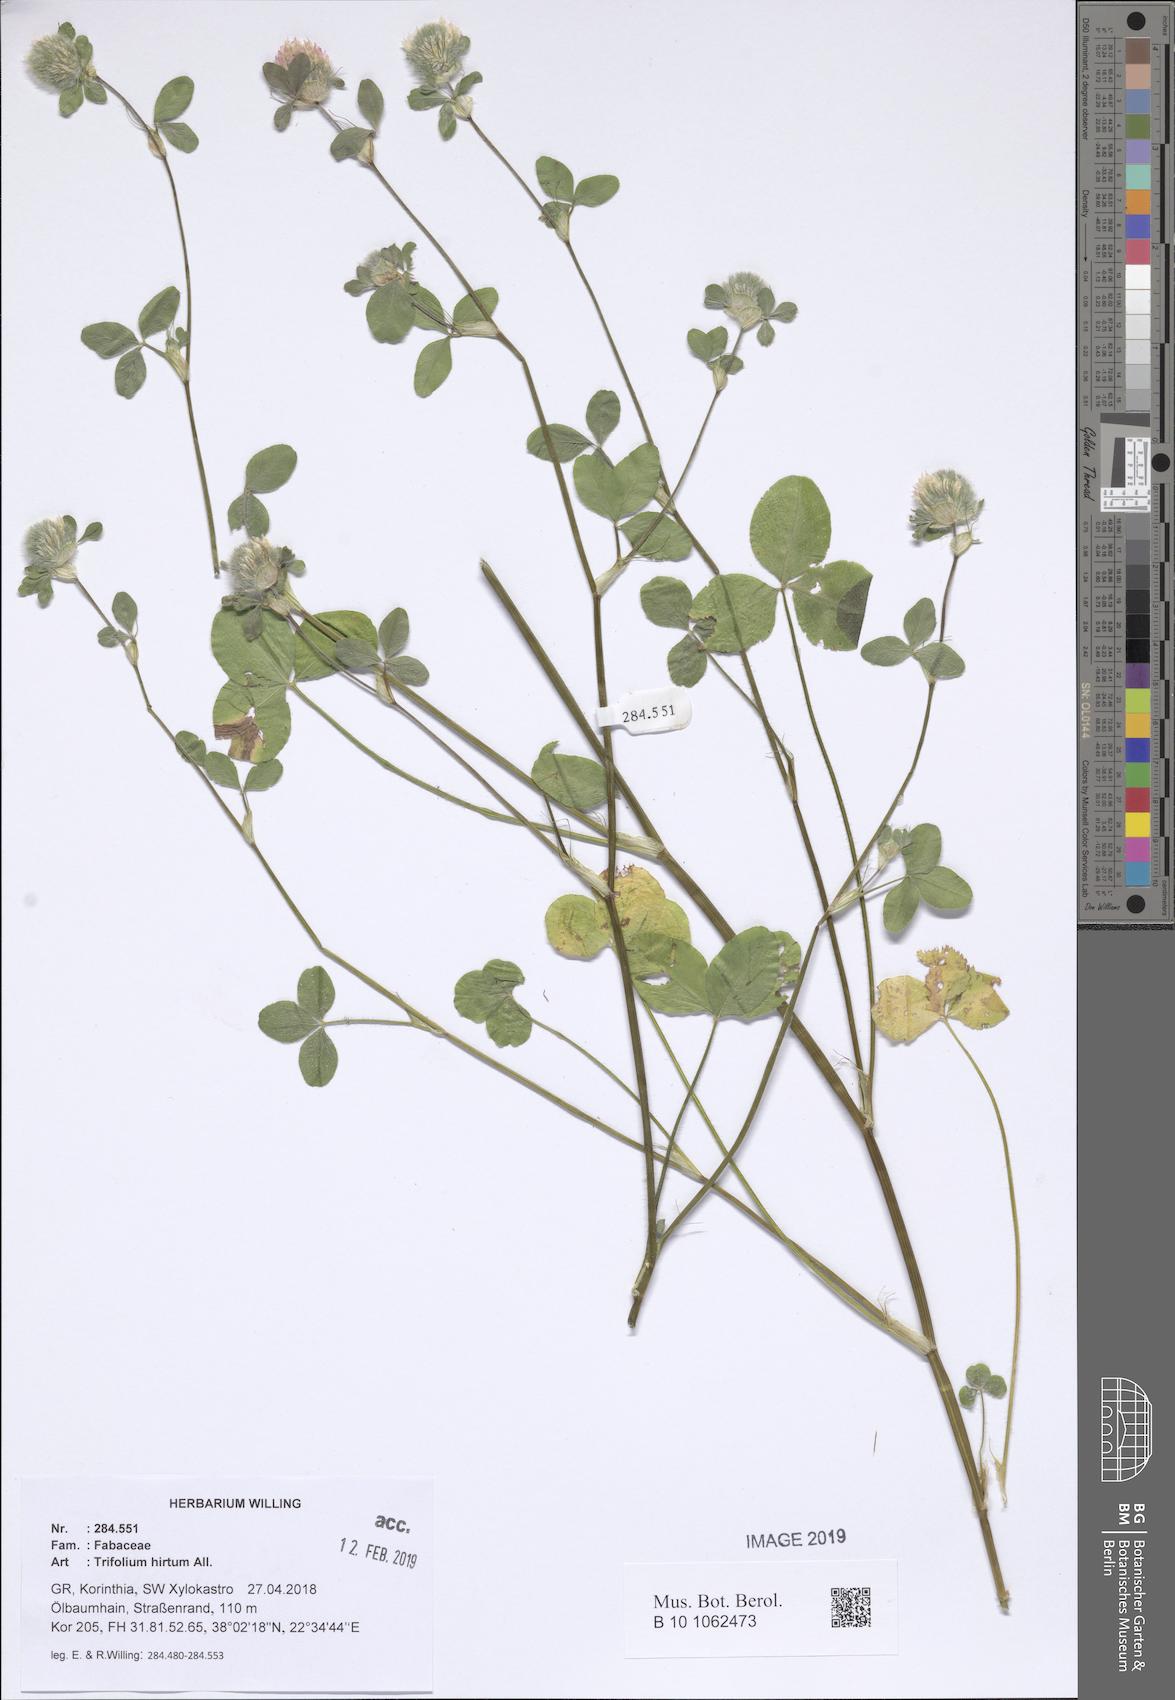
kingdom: Plantae
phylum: Tracheophyta
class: Magnoliopsida
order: Fabales
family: Fabaceae
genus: Trifolium
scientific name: Trifolium hirtum
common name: Rose clover
